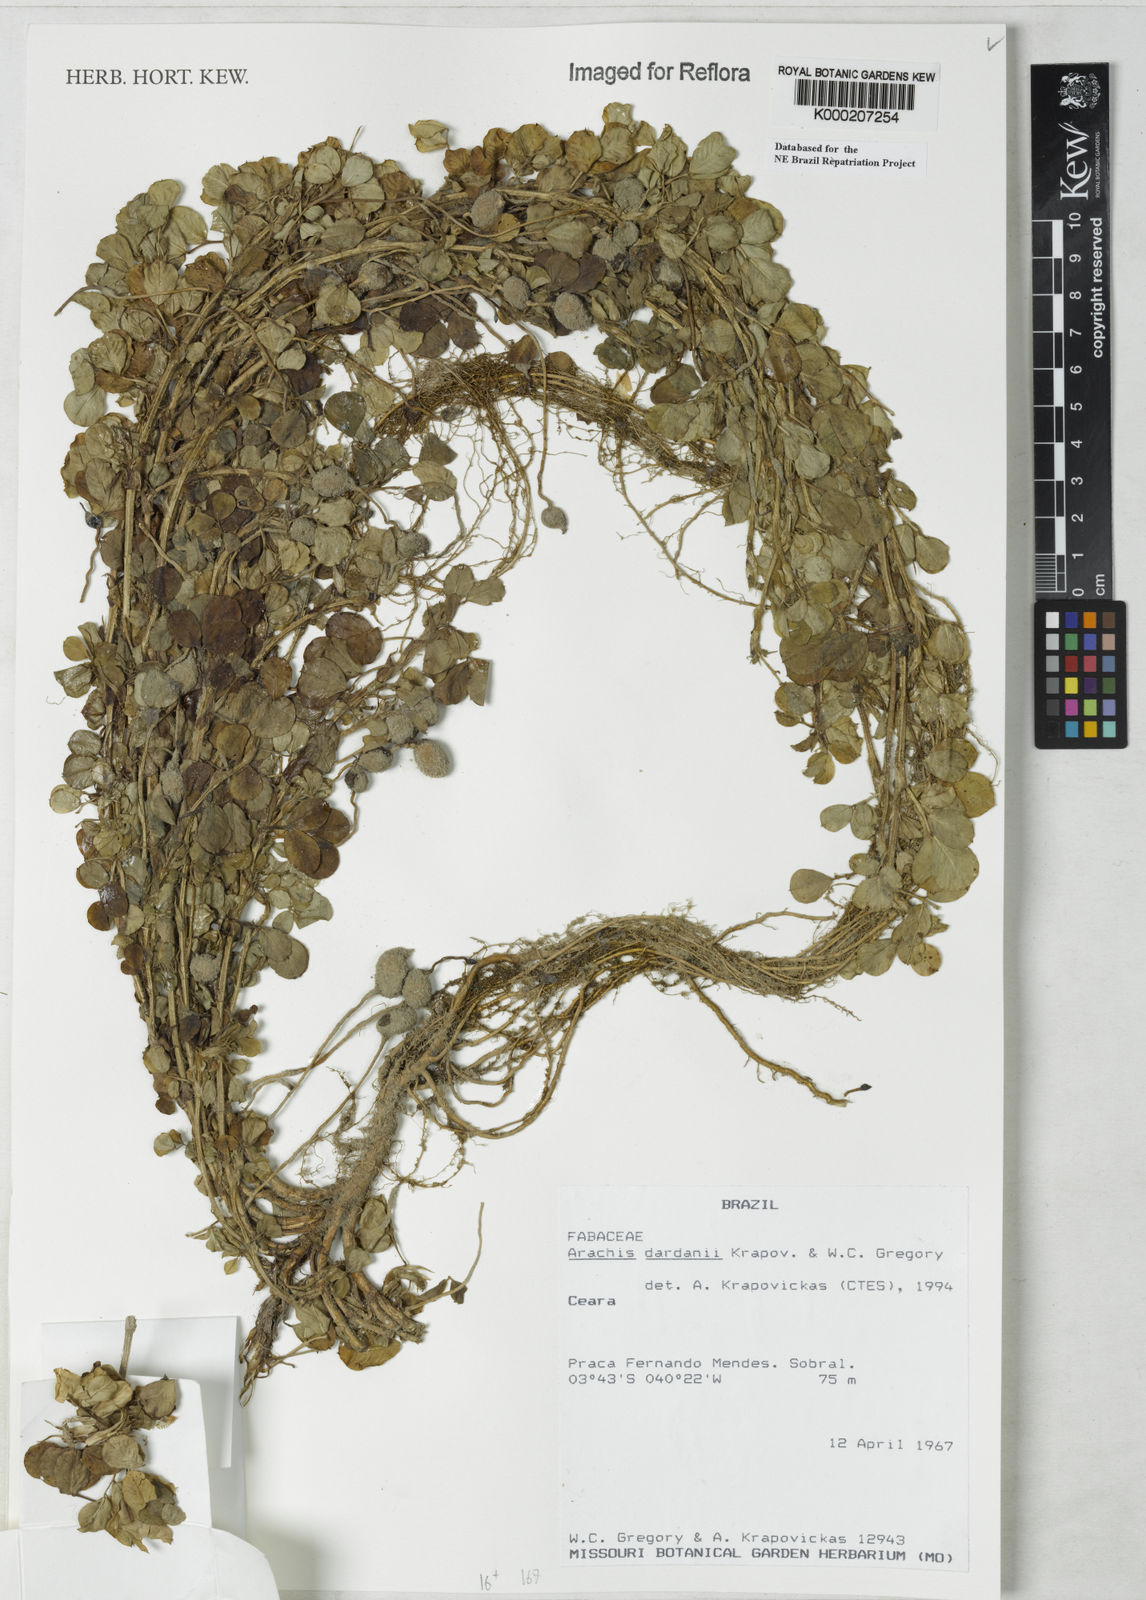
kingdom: Plantae
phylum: Tracheophyta
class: Magnoliopsida
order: Fabales
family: Fabaceae
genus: Arachis
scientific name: Arachis
